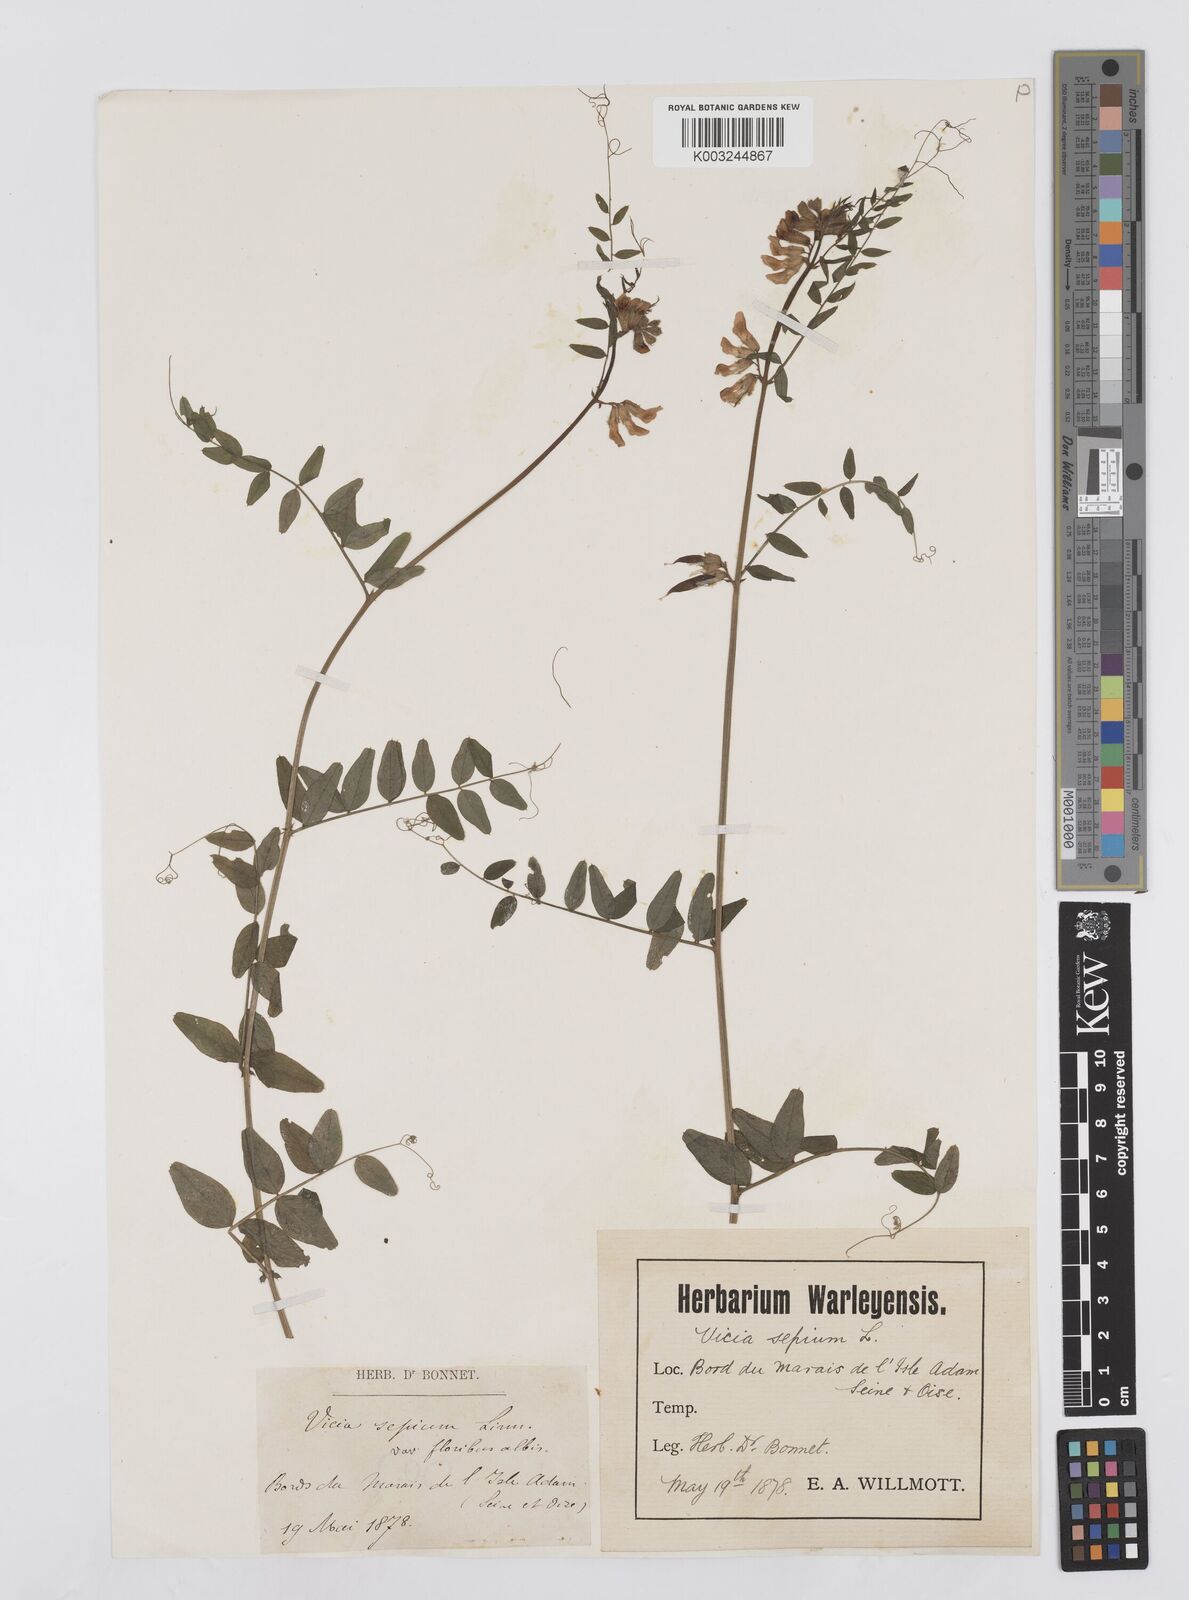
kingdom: Plantae
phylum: Tracheophyta
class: Magnoliopsida
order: Fabales
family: Fabaceae
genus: Vicia
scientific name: Vicia sepium
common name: Bush vetch
